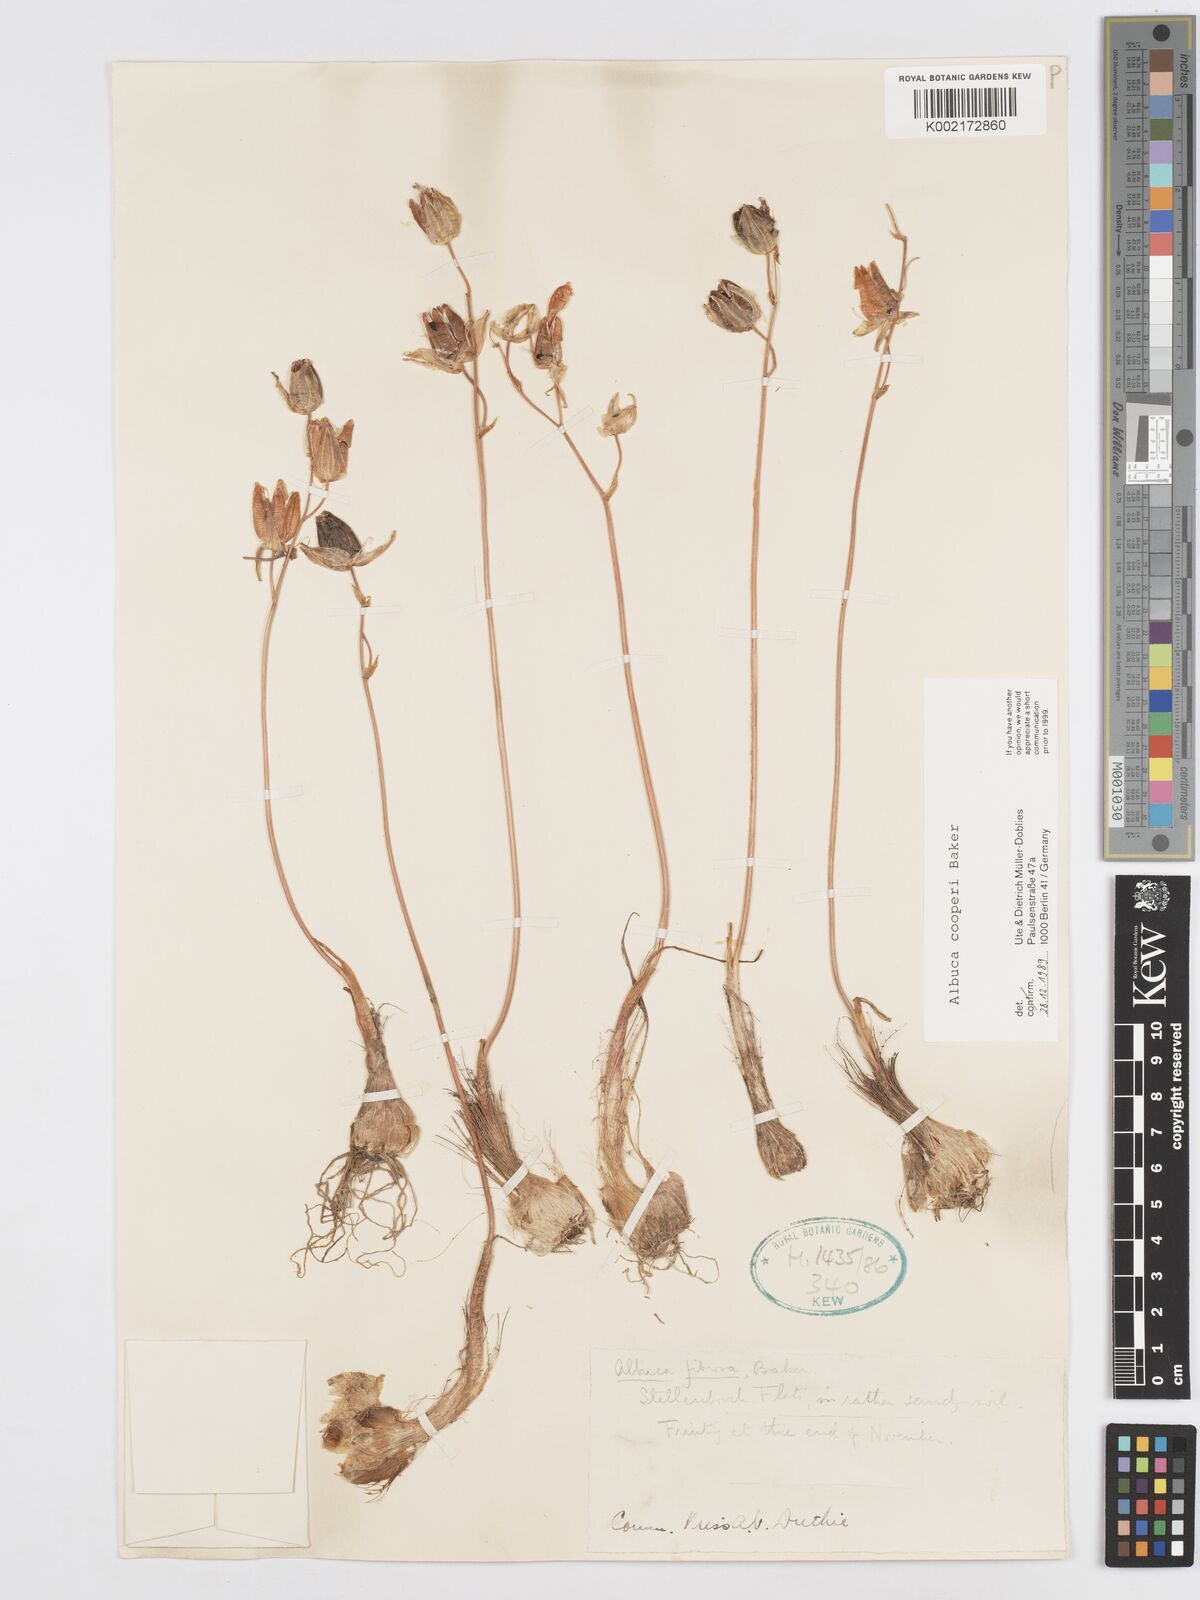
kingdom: Plantae
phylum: Tracheophyta
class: Liliopsida
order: Asparagales
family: Asparagaceae
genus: Albuca
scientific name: Albuca cooperi
